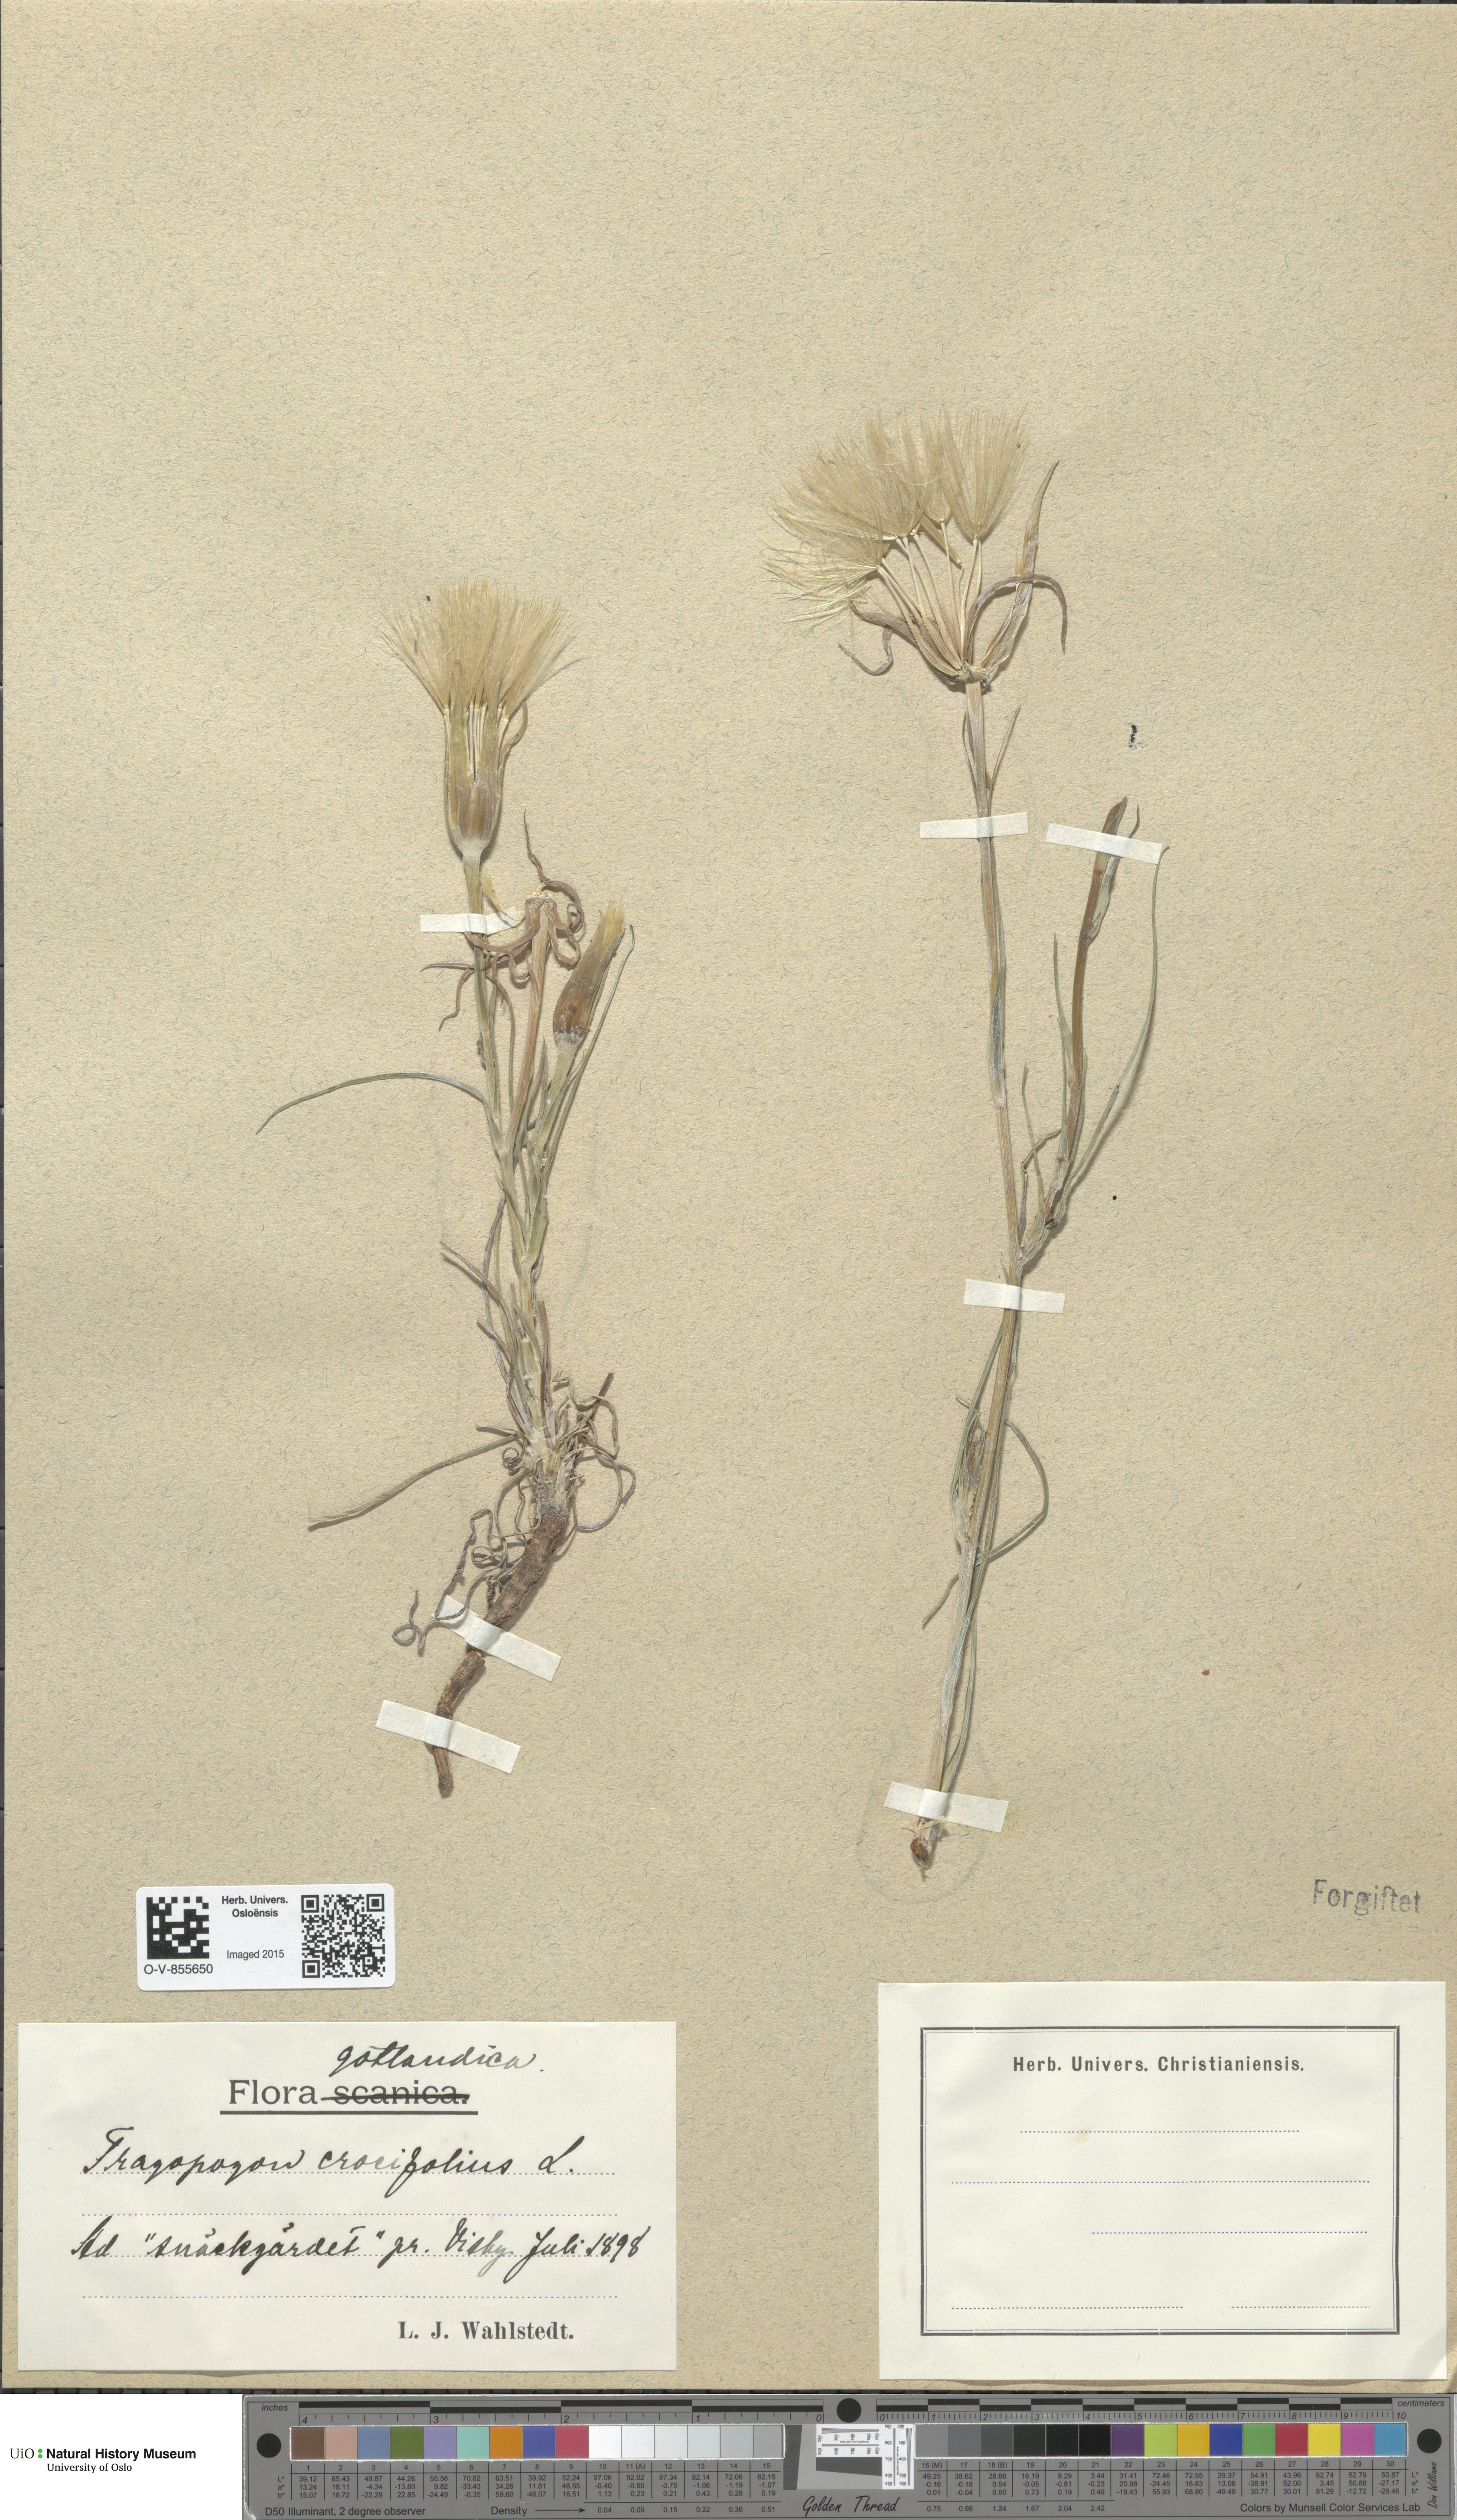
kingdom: Plantae
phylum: Tracheophyta
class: Magnoliopsida
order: Asterales
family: Asteraceae
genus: Tragopogon
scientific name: Tragopogon crocifolius
